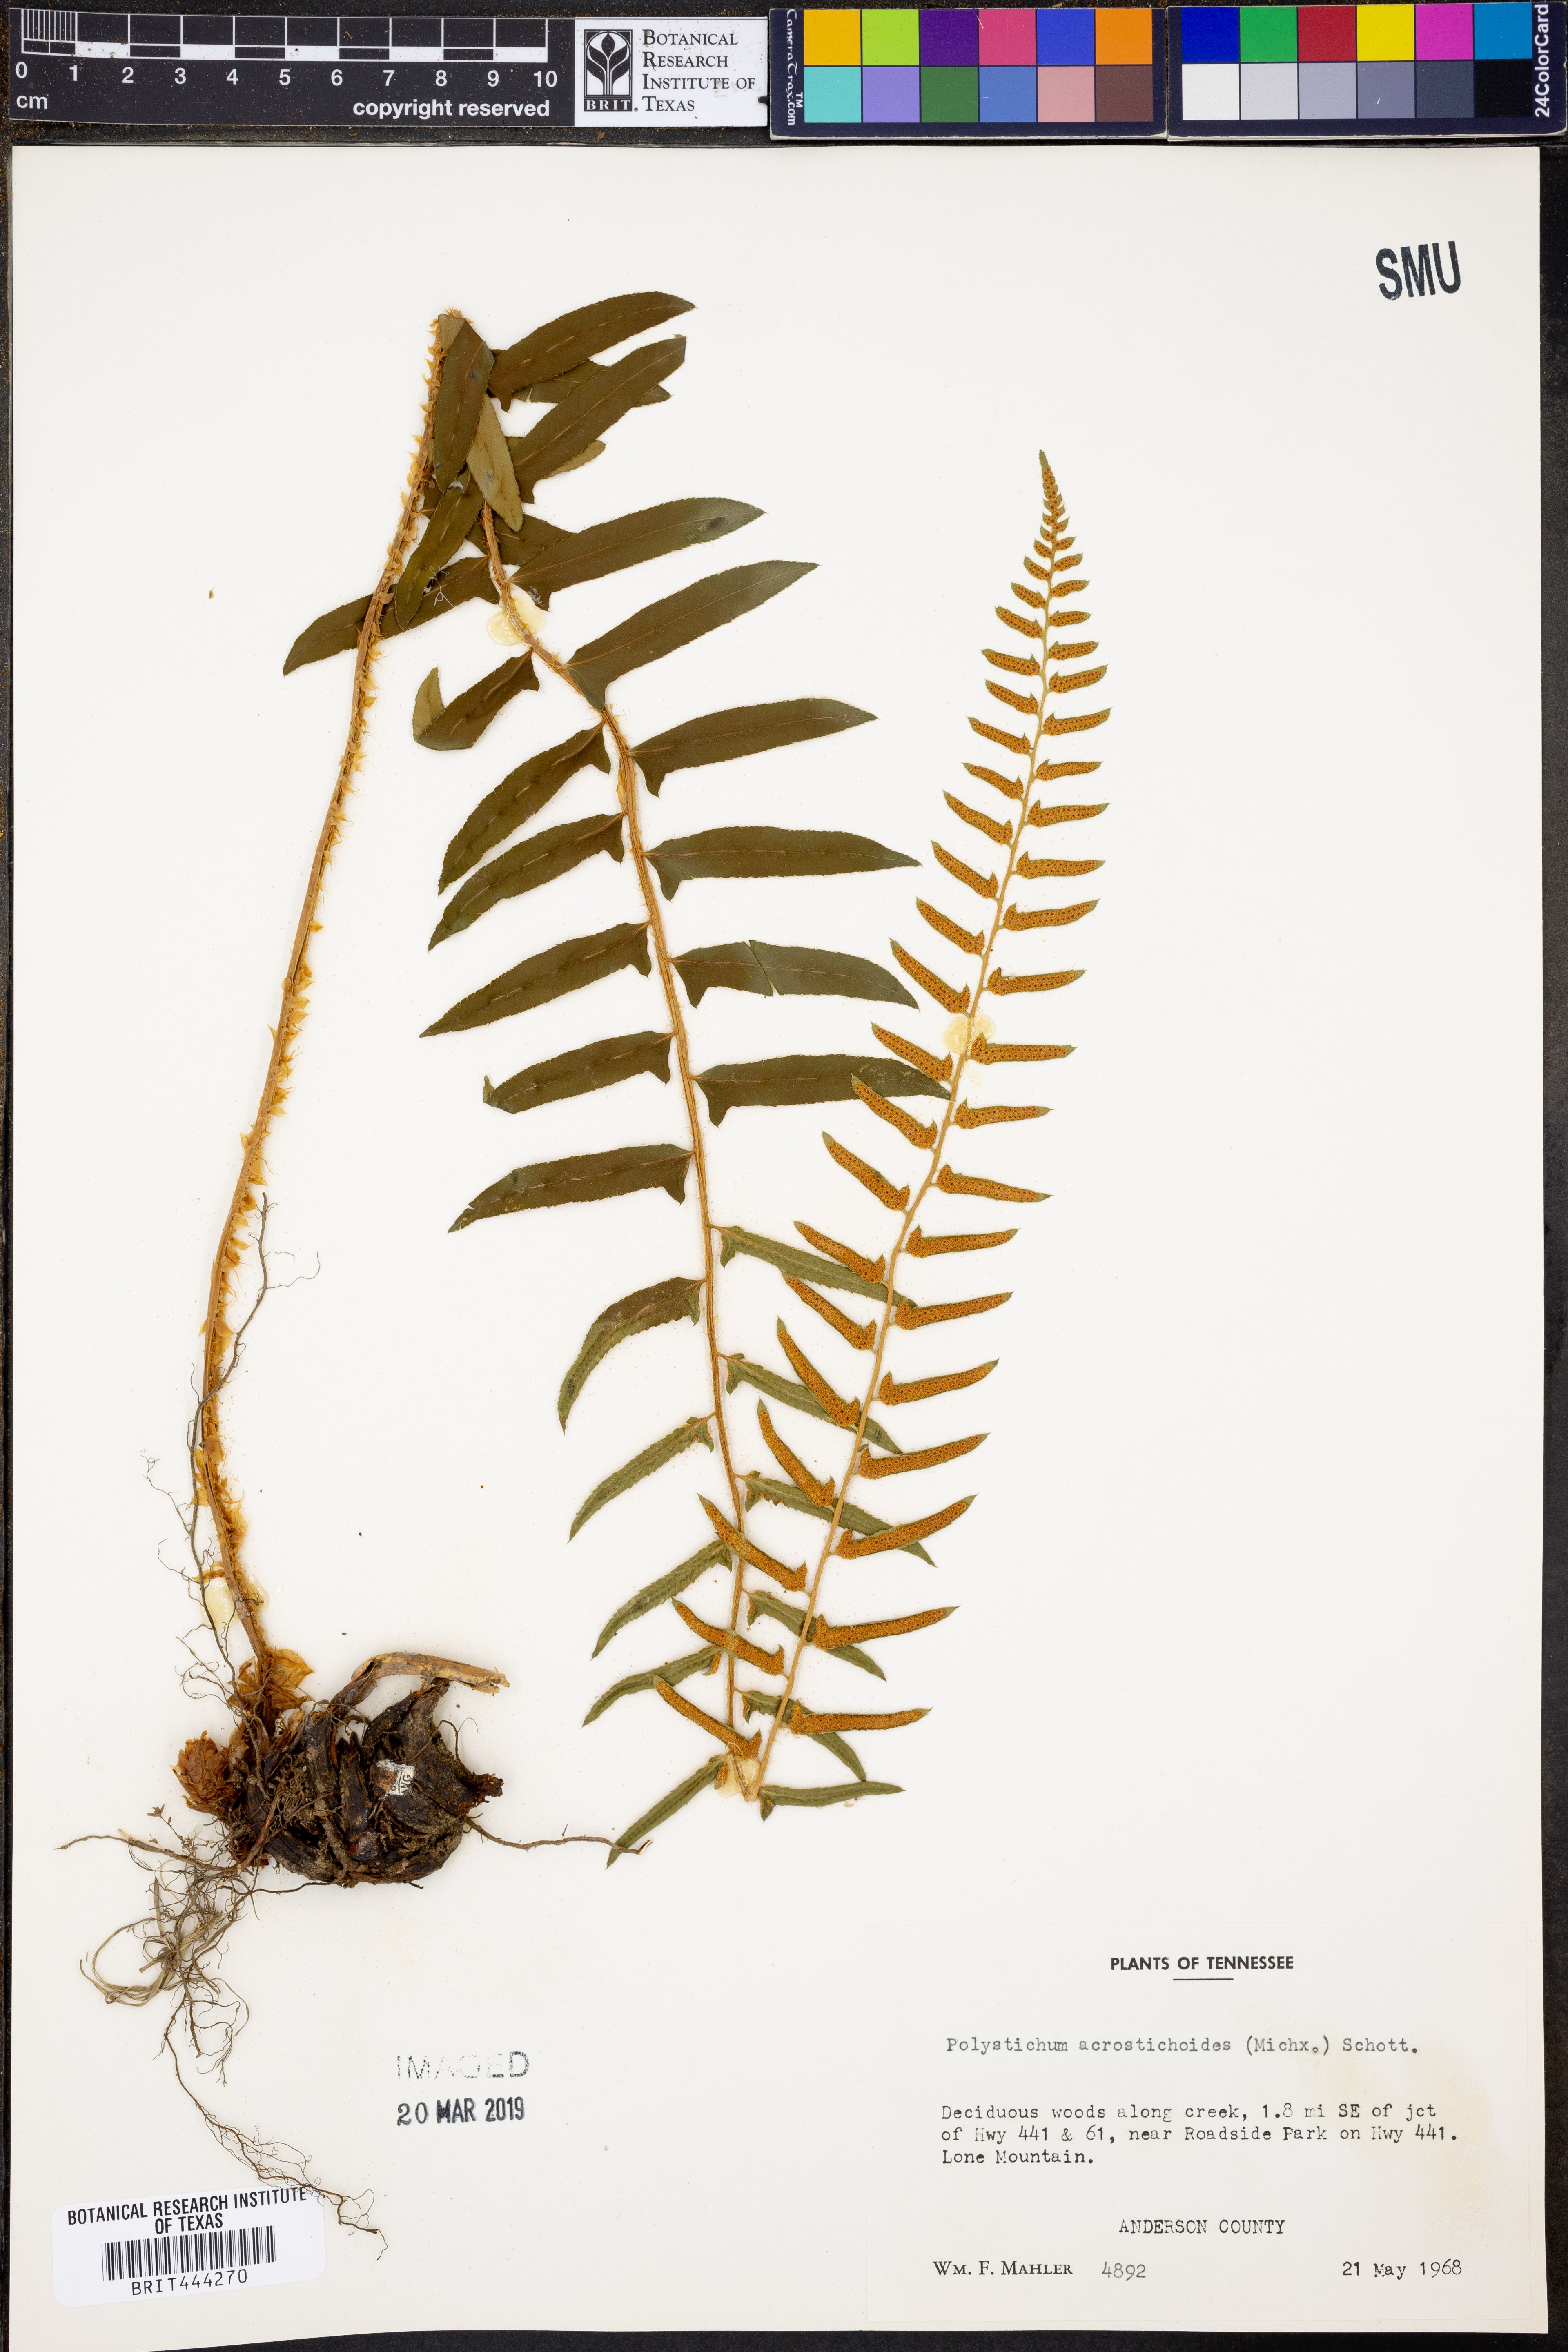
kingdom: Plantae
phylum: Tracheophyta
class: Polypodiopsida
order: Polypodiales
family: Dryopteridaceae
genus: Polystichum
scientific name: Polystichum acrostichoides
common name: Christmas fern
